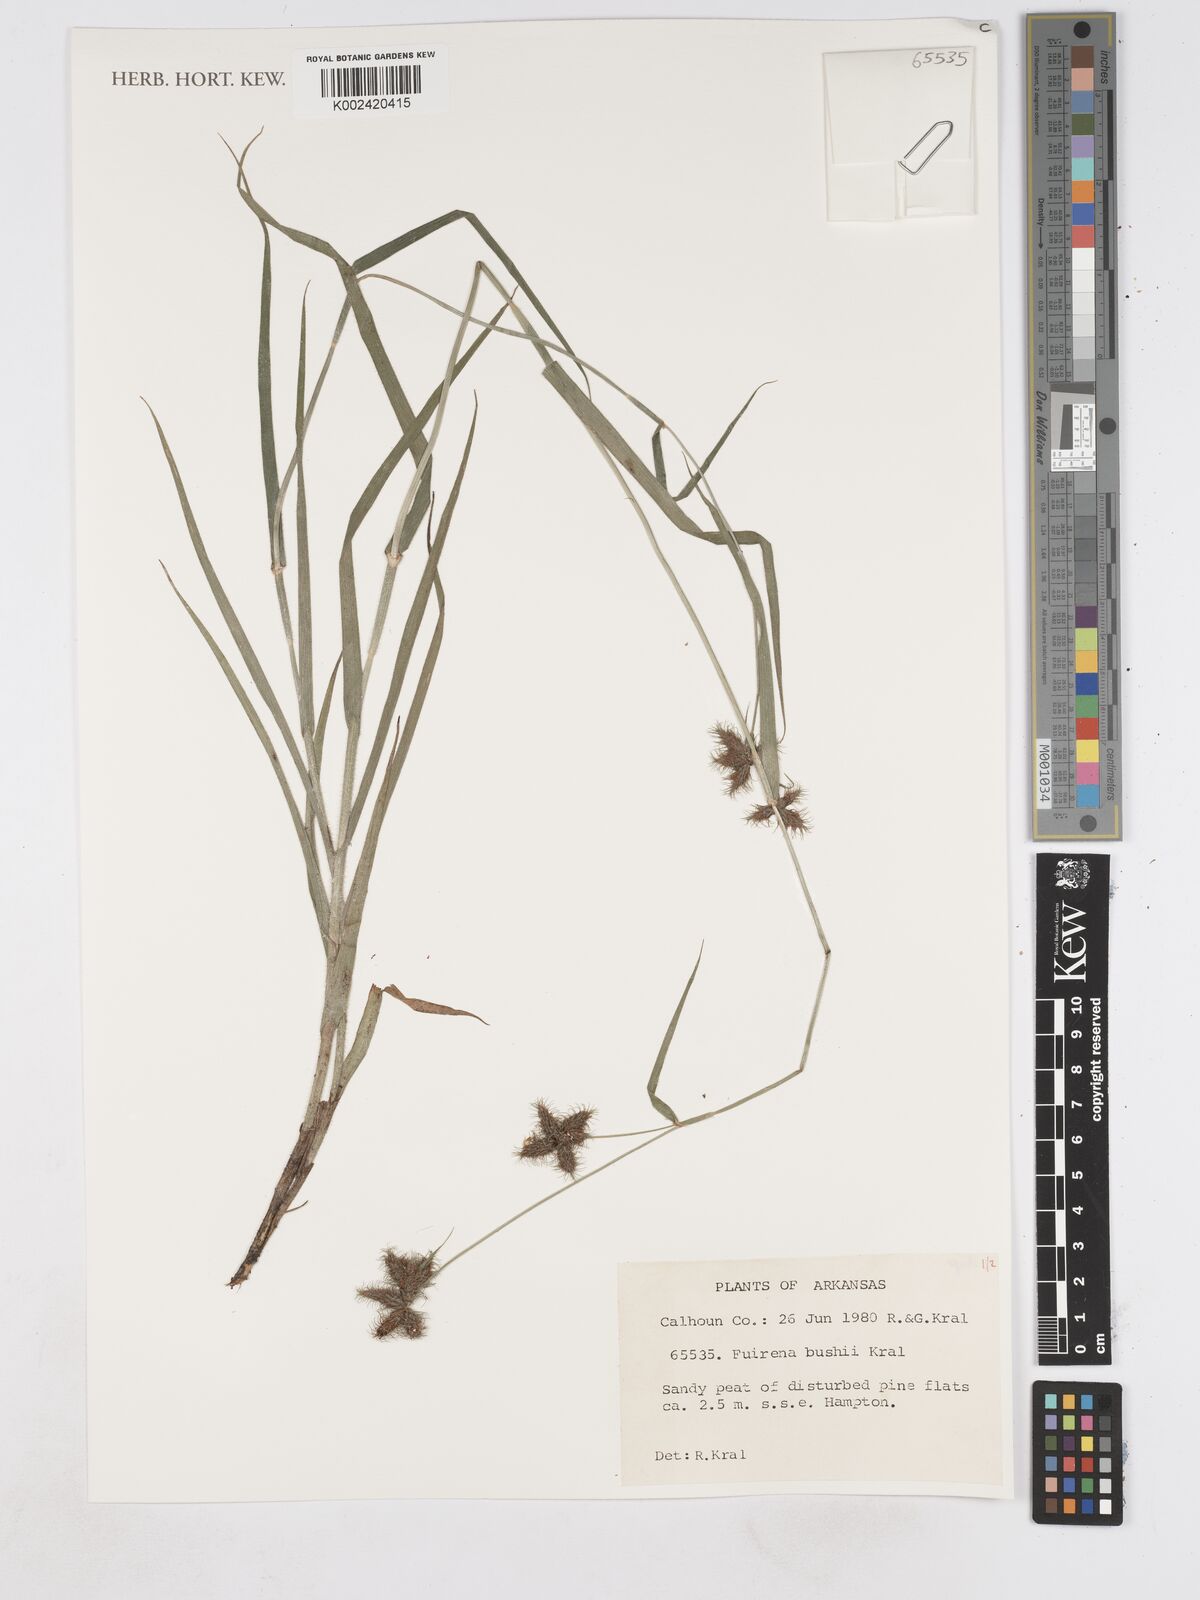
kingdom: Plantae
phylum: Tracheophyta
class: Liliopsida
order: Poales
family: Cyperaceae
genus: Fuirena
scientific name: Fuirena bushii
